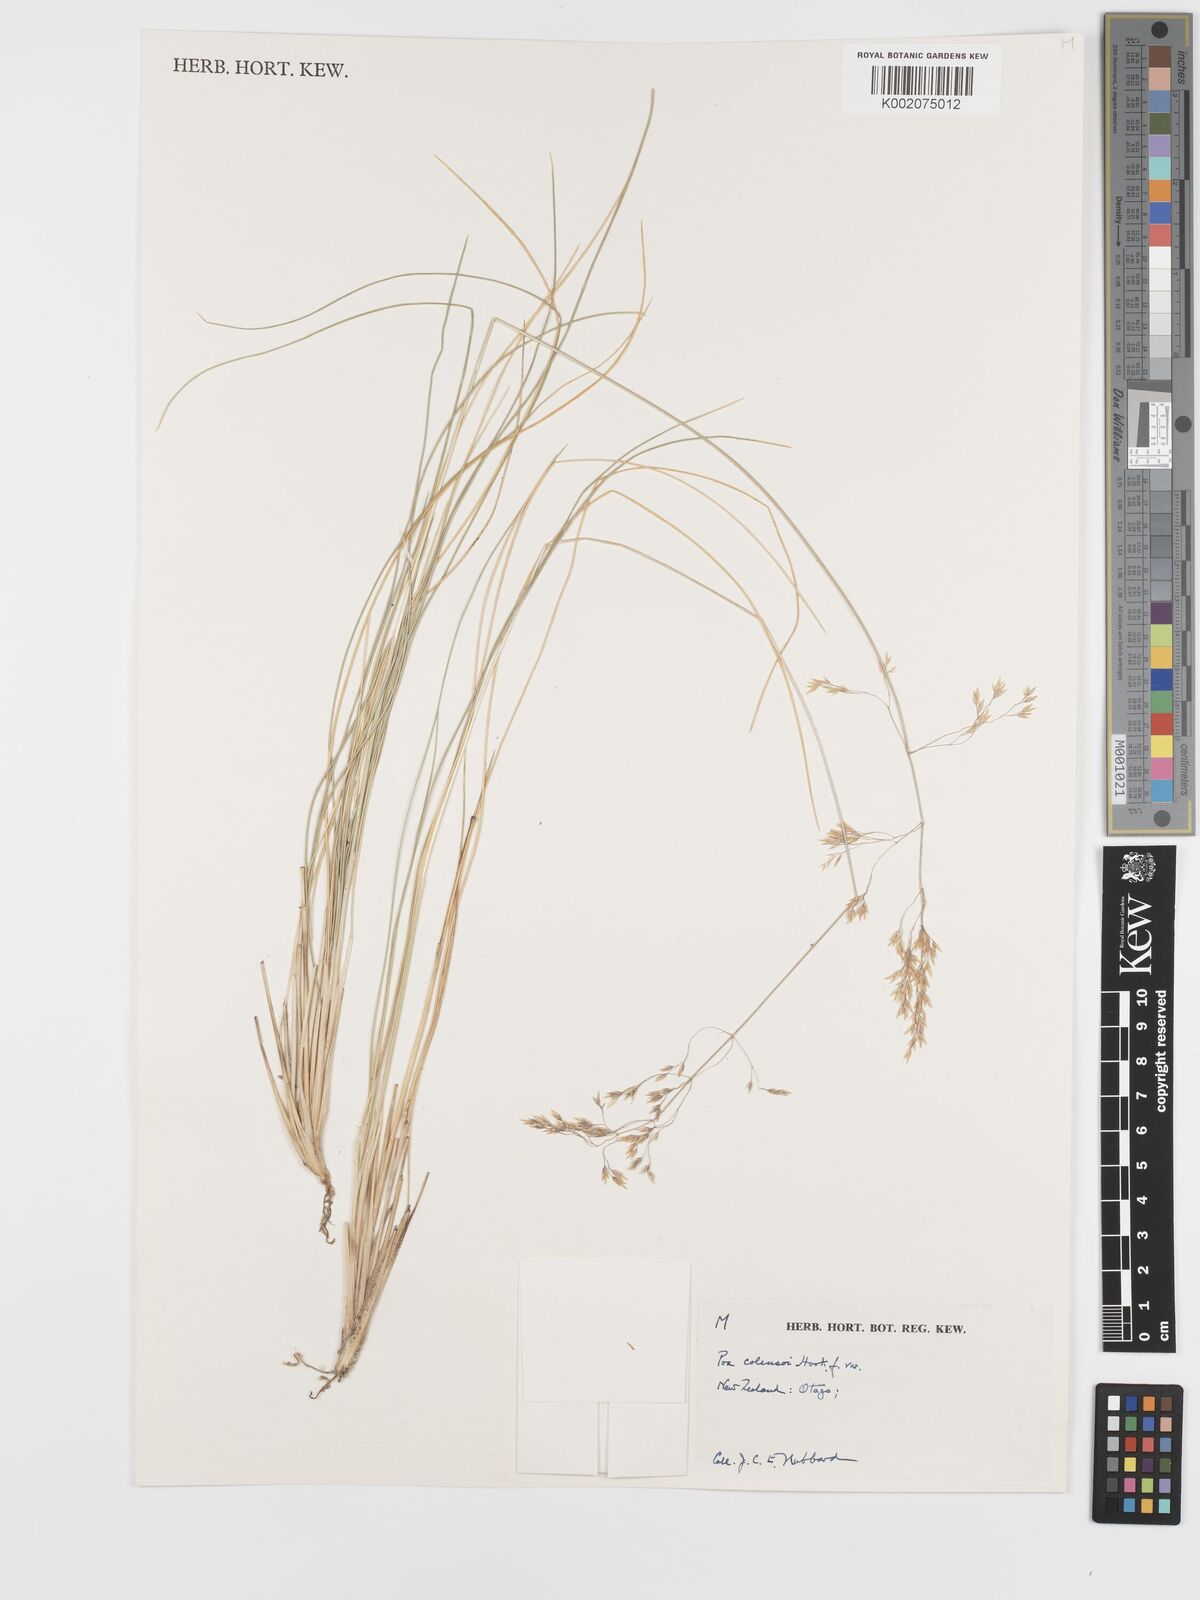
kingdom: Plantae
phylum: Tracheophyta
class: Liliopsida
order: Poales
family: Poaceae
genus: Poa
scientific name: Poa colensoi
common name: Blue tussock
